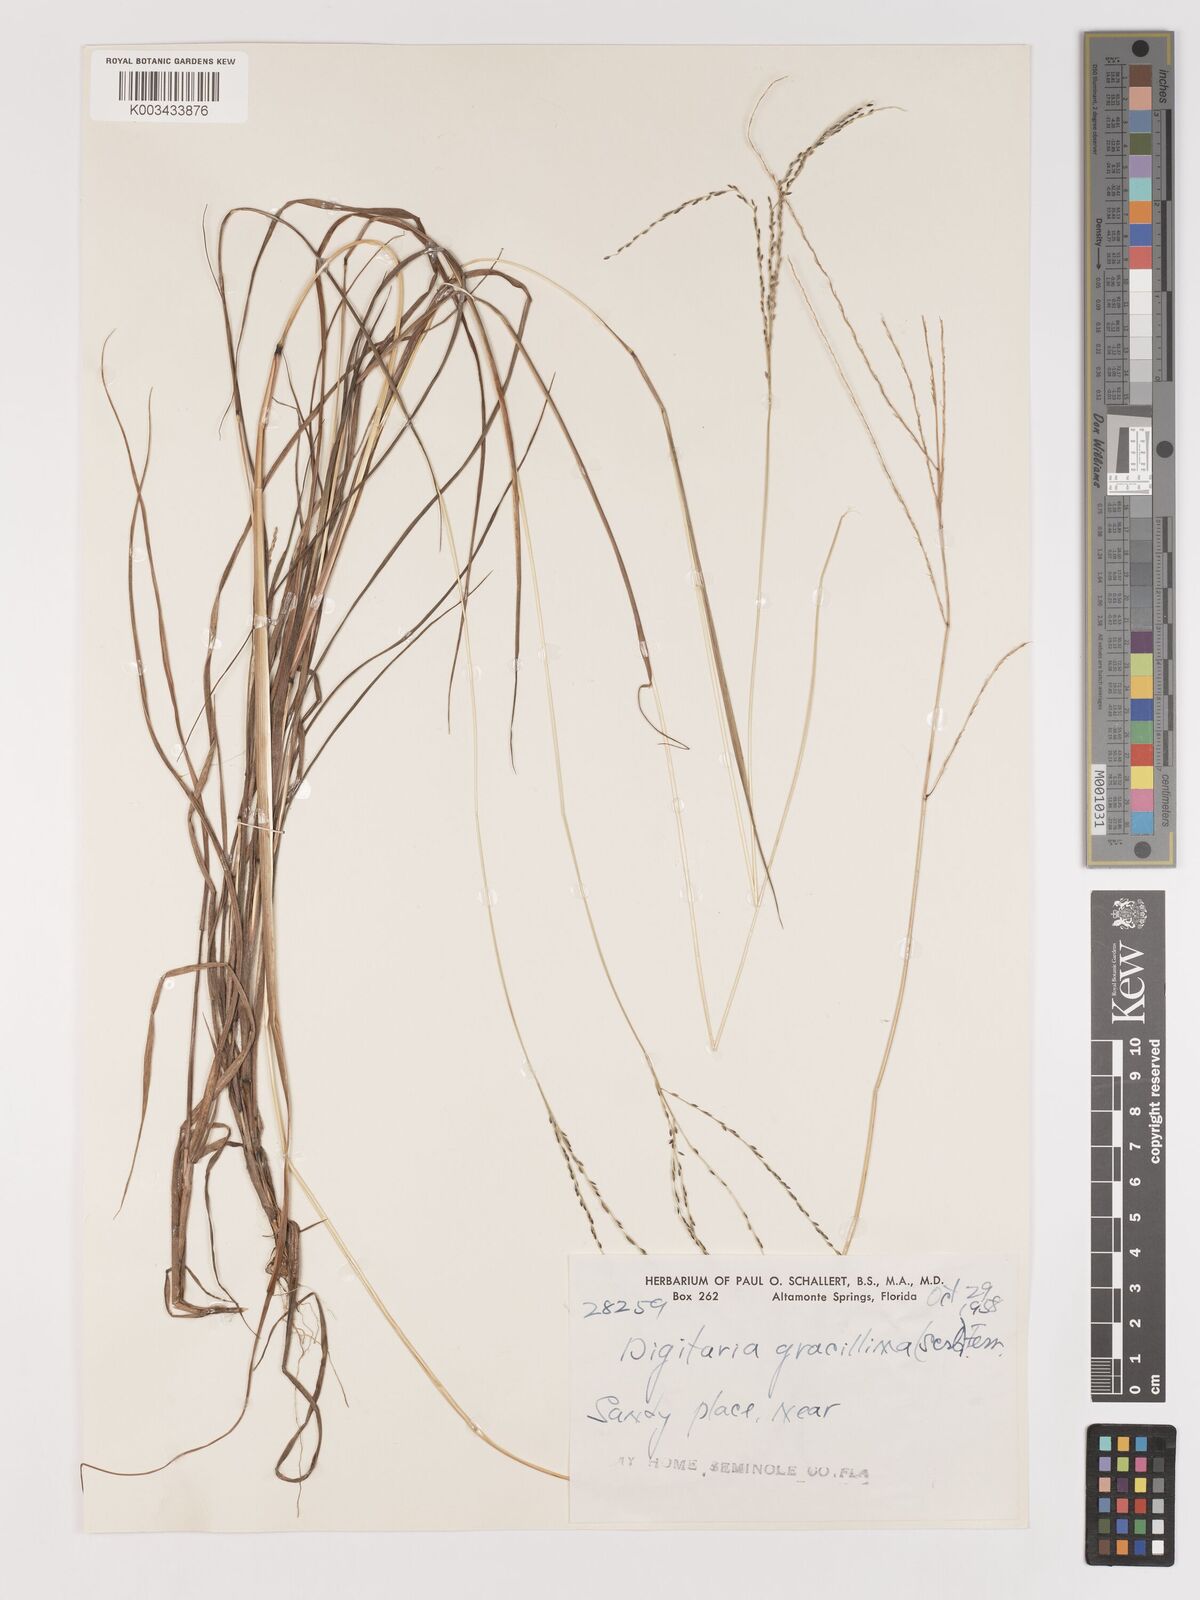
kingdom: Plantae
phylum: Tracheophyta
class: Liliopsida
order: Poales
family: Poaceae
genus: Digitaria
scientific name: Digitaria gracillima
